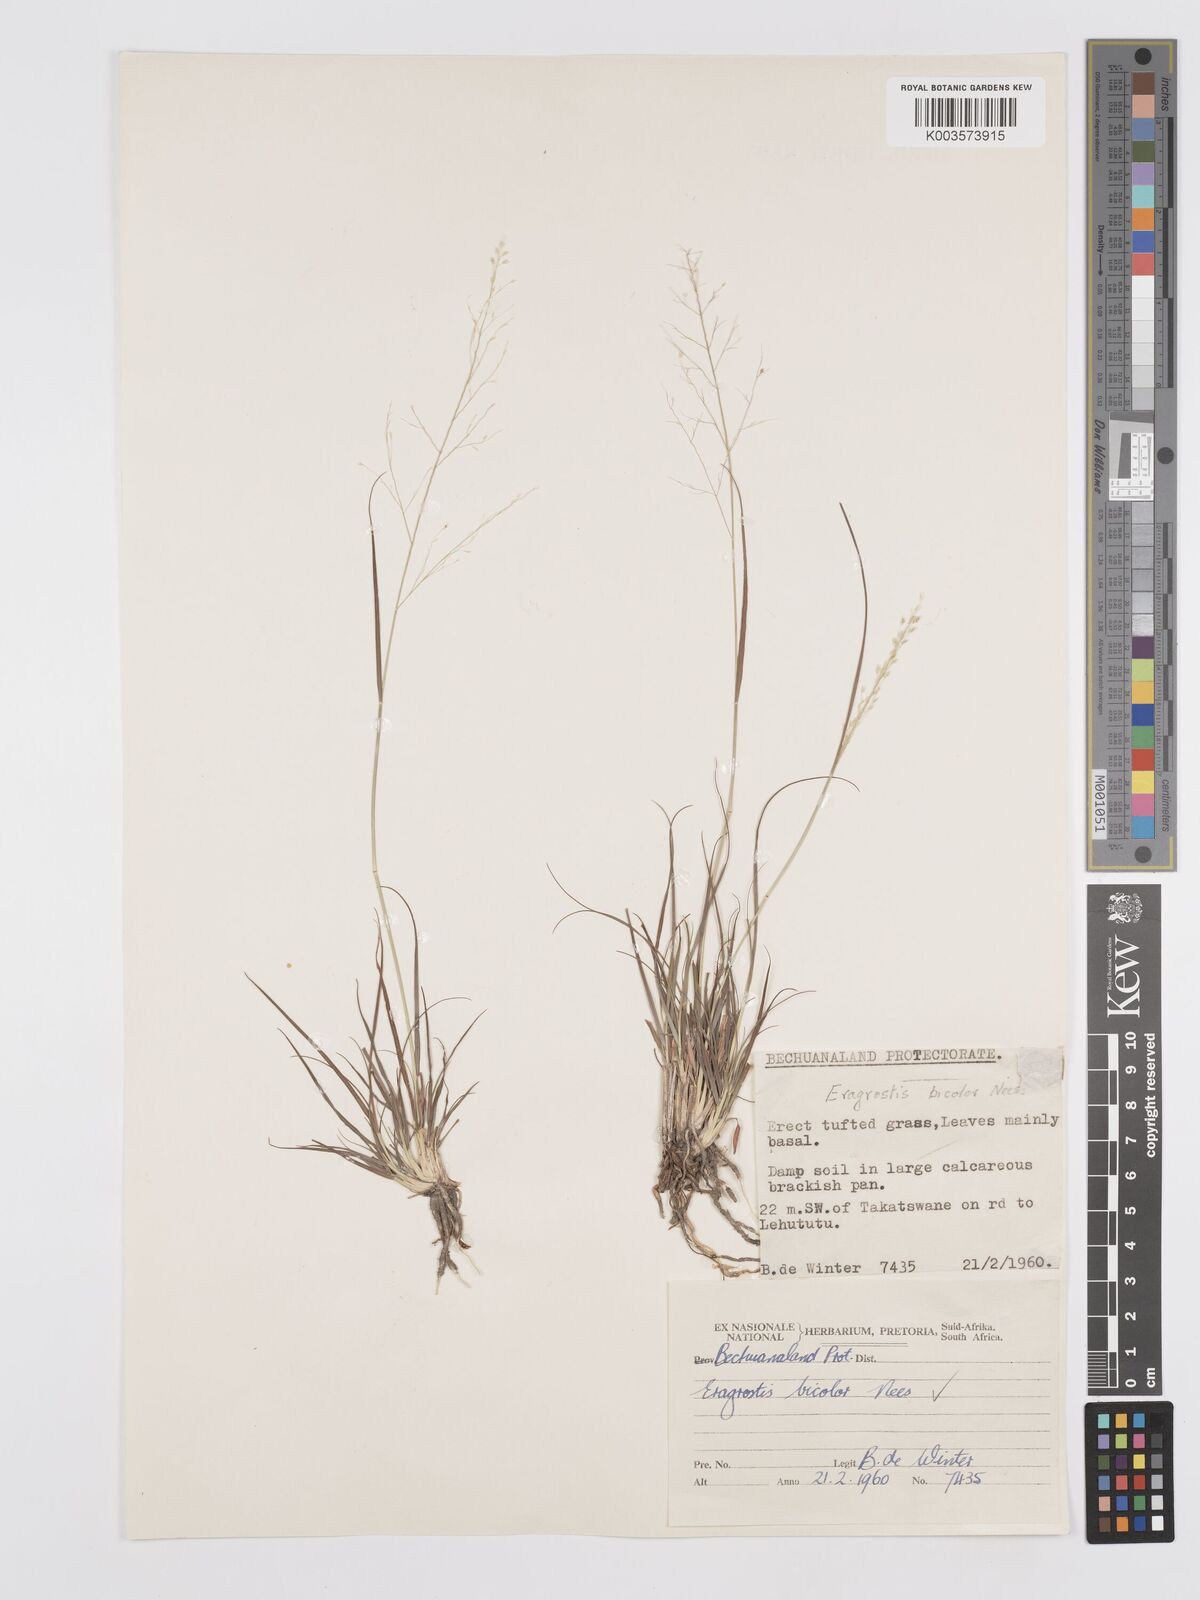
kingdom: Plantae
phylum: Tracheophyta
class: Liliopsida
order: Poales
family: Poaceae
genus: Eragrostis
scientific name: Eragrostis
